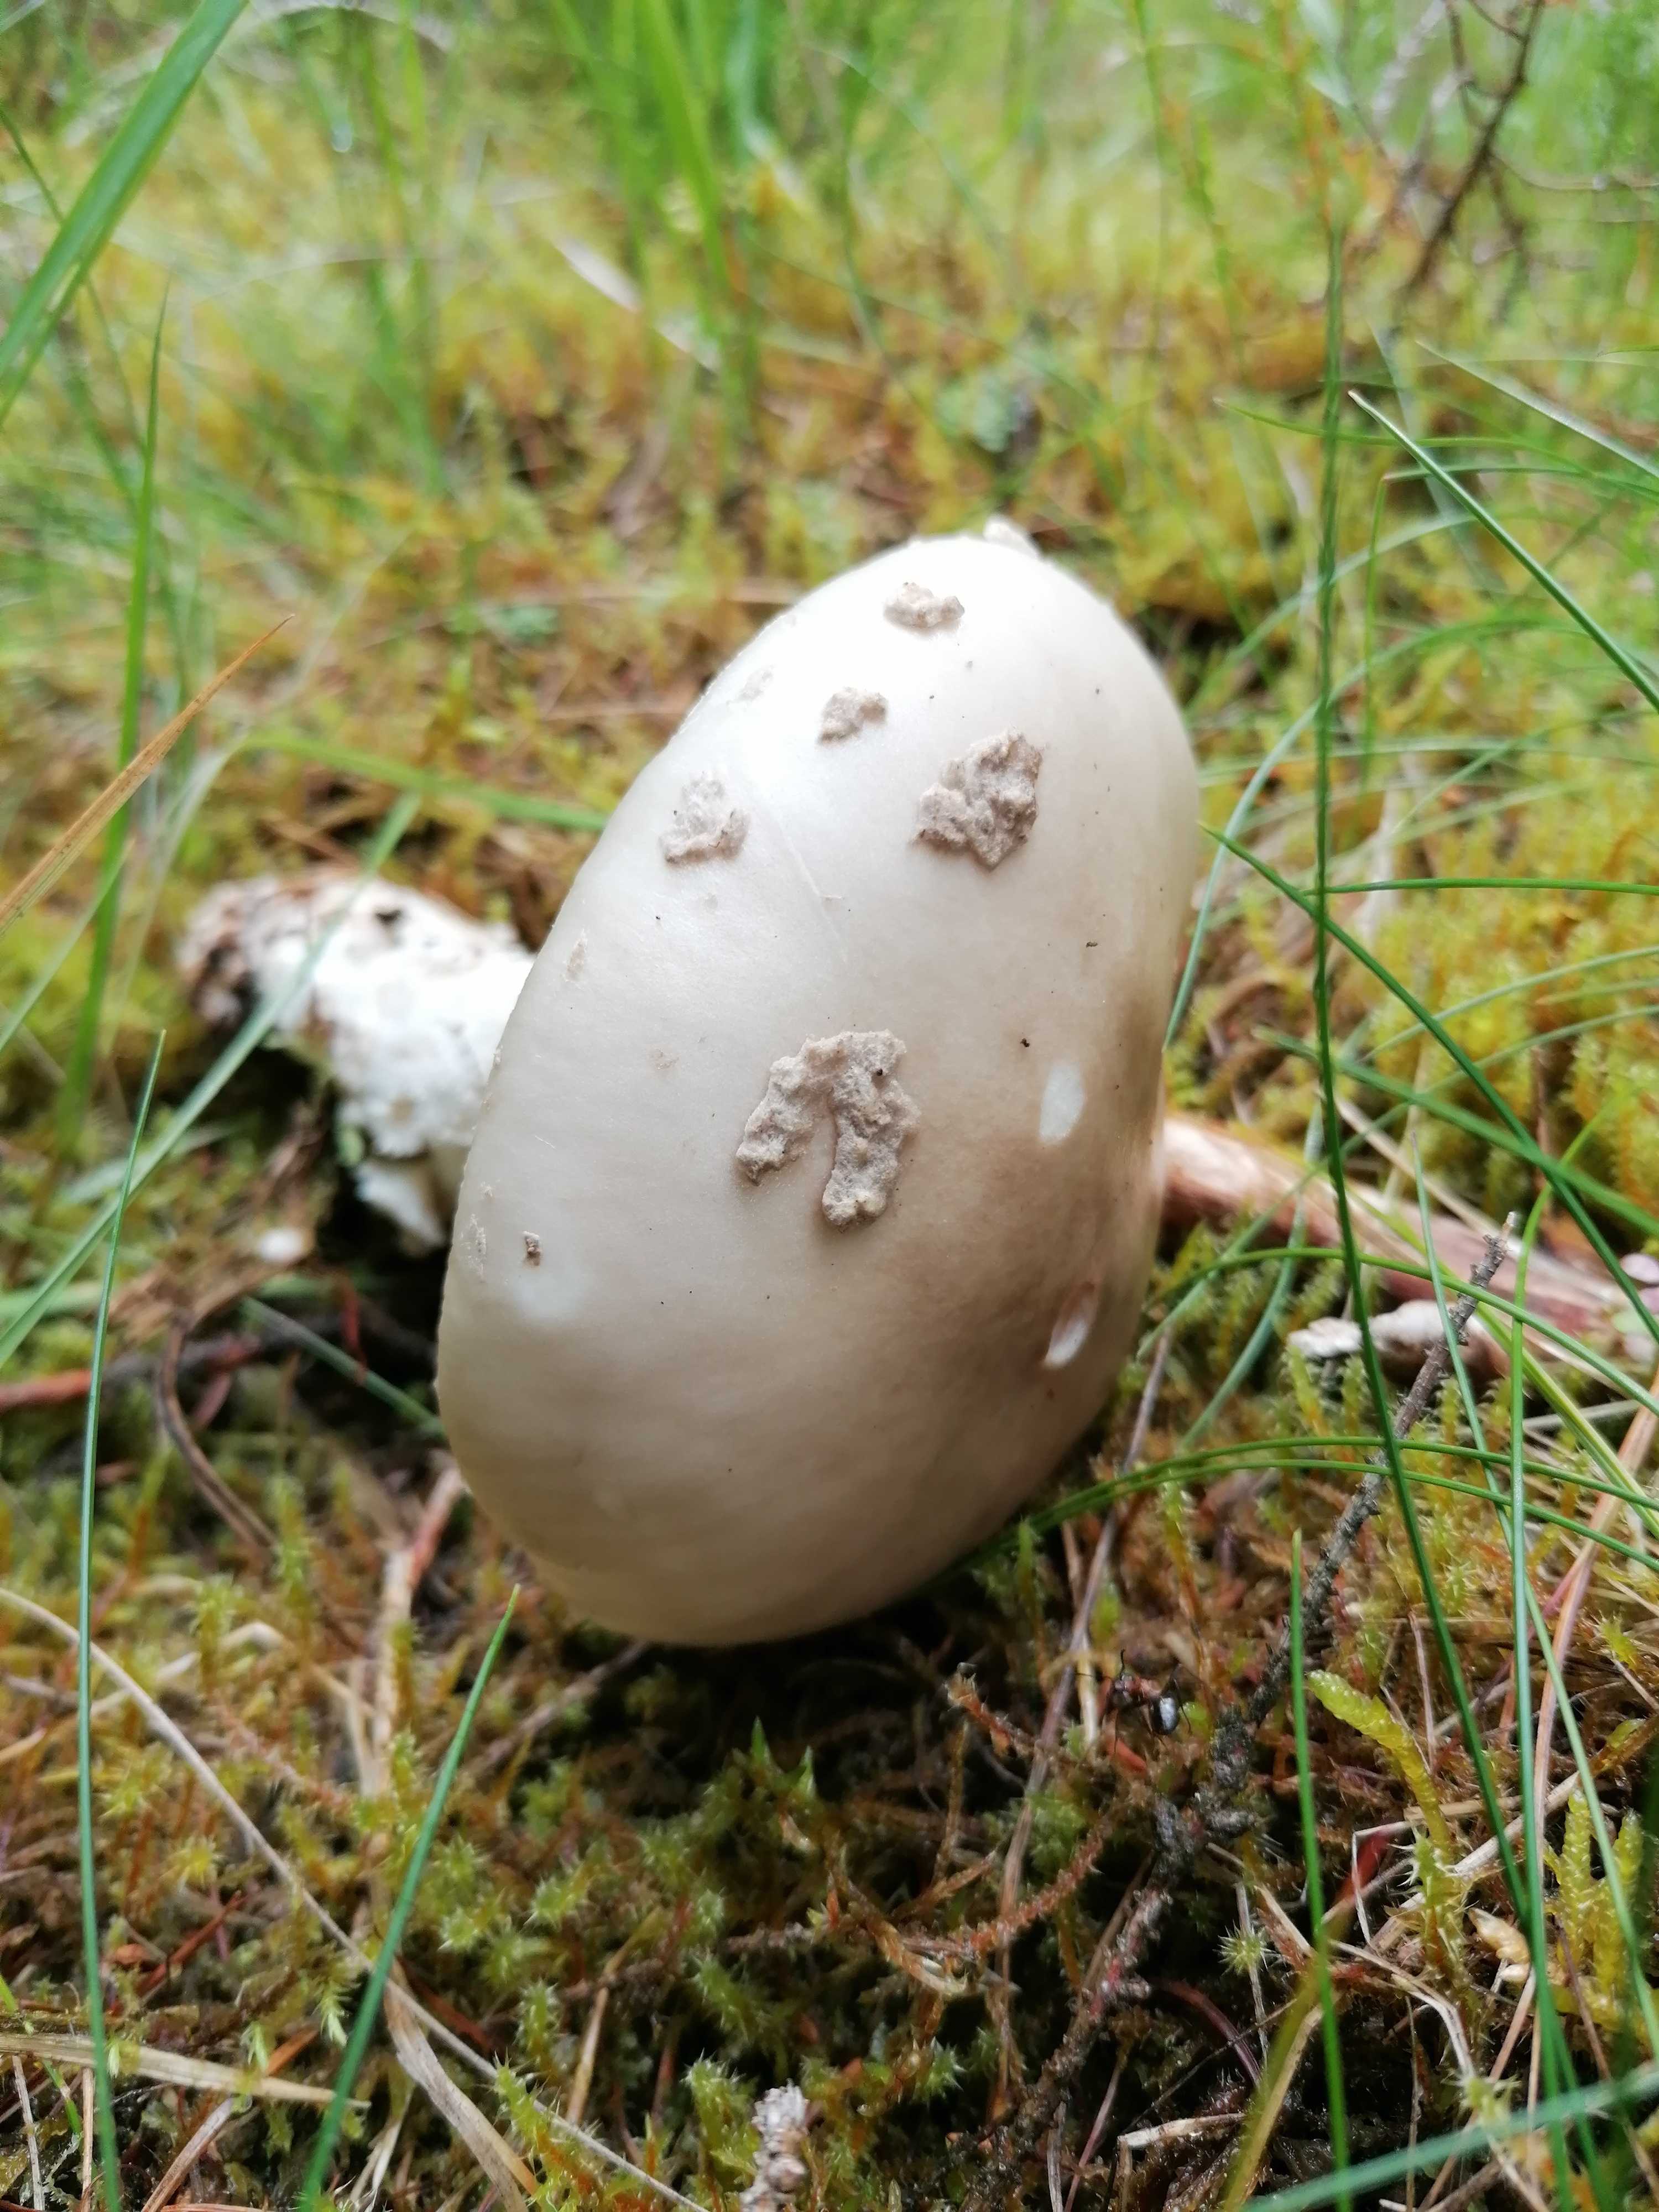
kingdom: Fungi
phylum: Basidiomycota
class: Agaricomycetes
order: Agaricales
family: Amanitaceae
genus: Amanita
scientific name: Amanita
